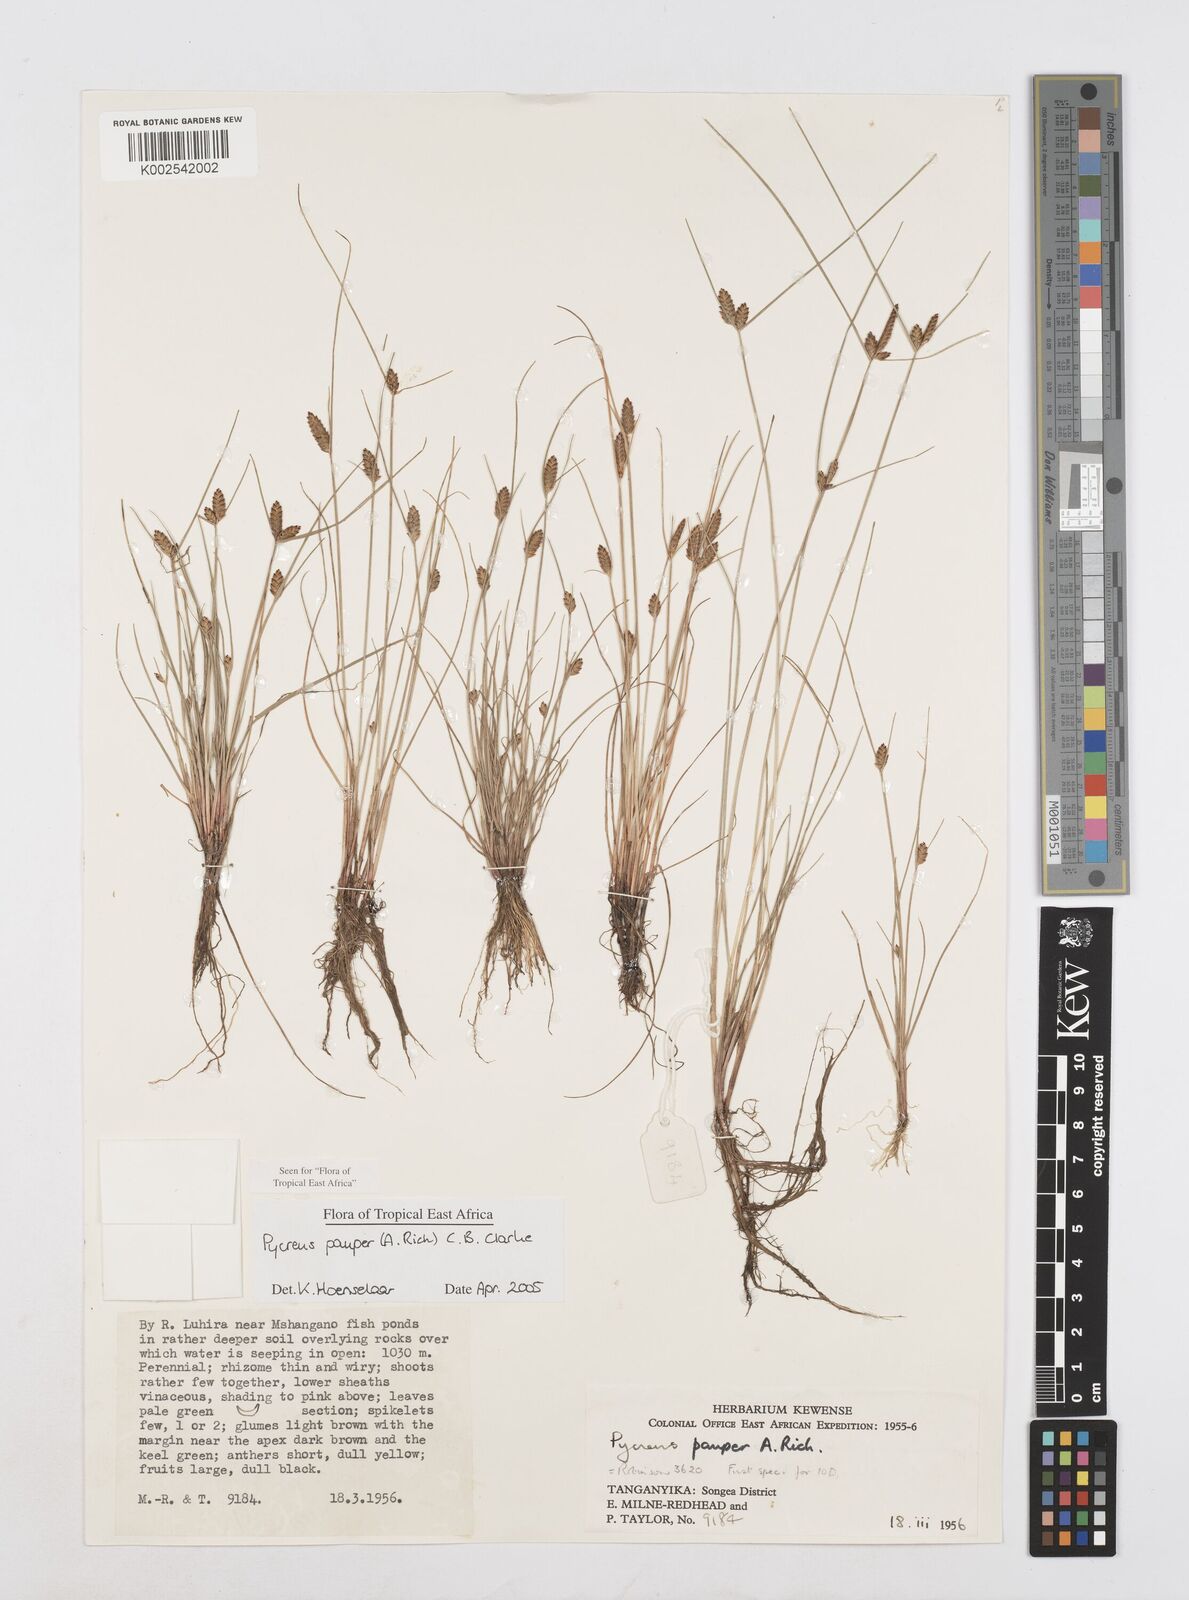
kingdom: Plantae
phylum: Tracheophyta
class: Liliopsida
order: Poales
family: Cyperaceae
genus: Cyperus
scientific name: Cyperus pauper
